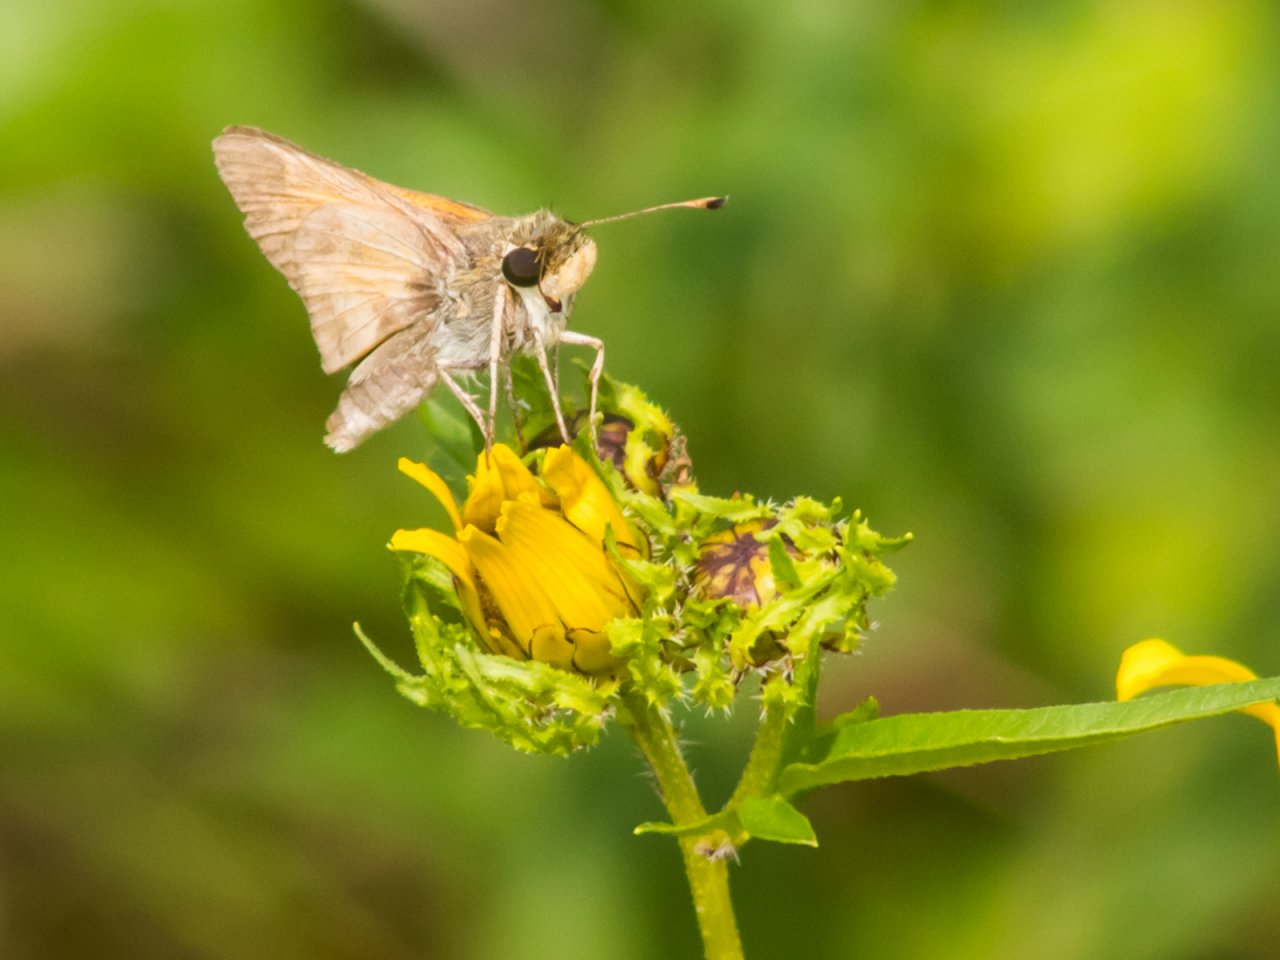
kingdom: Animalia
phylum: Arthropoda
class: Insecta
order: Lepidoptera
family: Hesperiidae
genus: Atalopedes
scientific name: Atalopedes campestris
